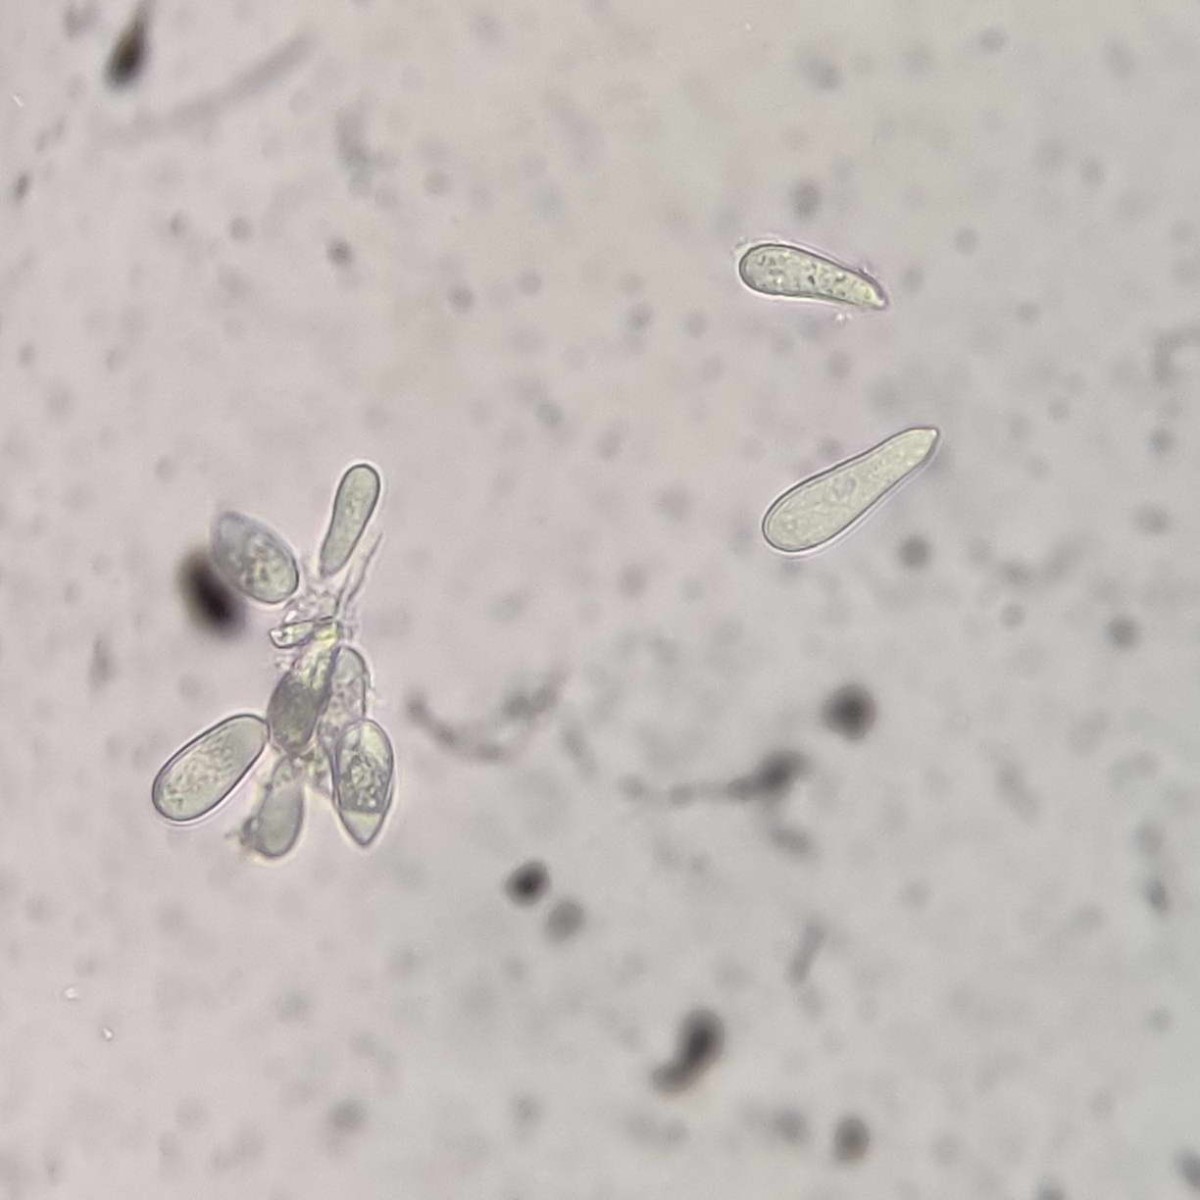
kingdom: Fungi
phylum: Ascomycota
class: Dothideomycetes
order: Mycosphaerellales
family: Mycosphaerellaceae
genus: Ramularia
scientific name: Ramularia rubella
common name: Red dock spot
